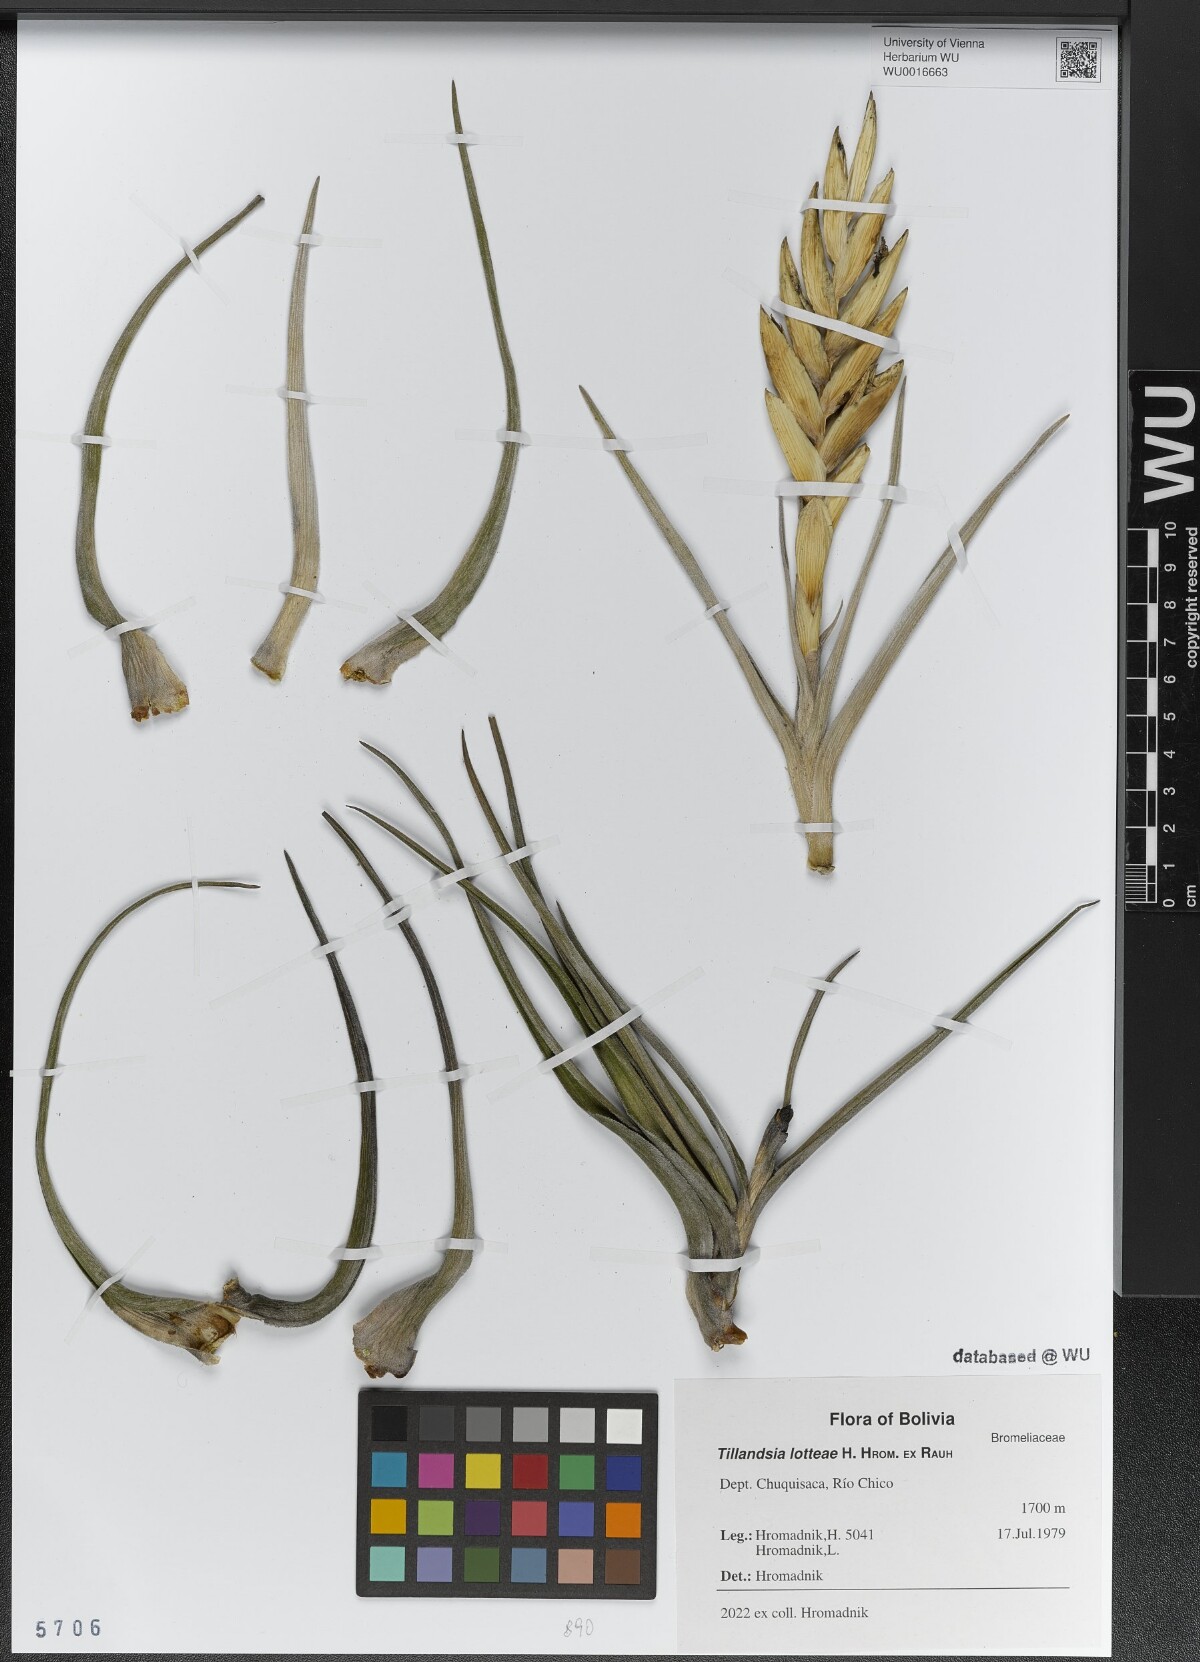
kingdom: Plantae
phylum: Tracheophyta
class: Liliopsida
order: Poales
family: Bromeliaceae
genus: Tillandsia
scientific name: Tillandsia lotteae
